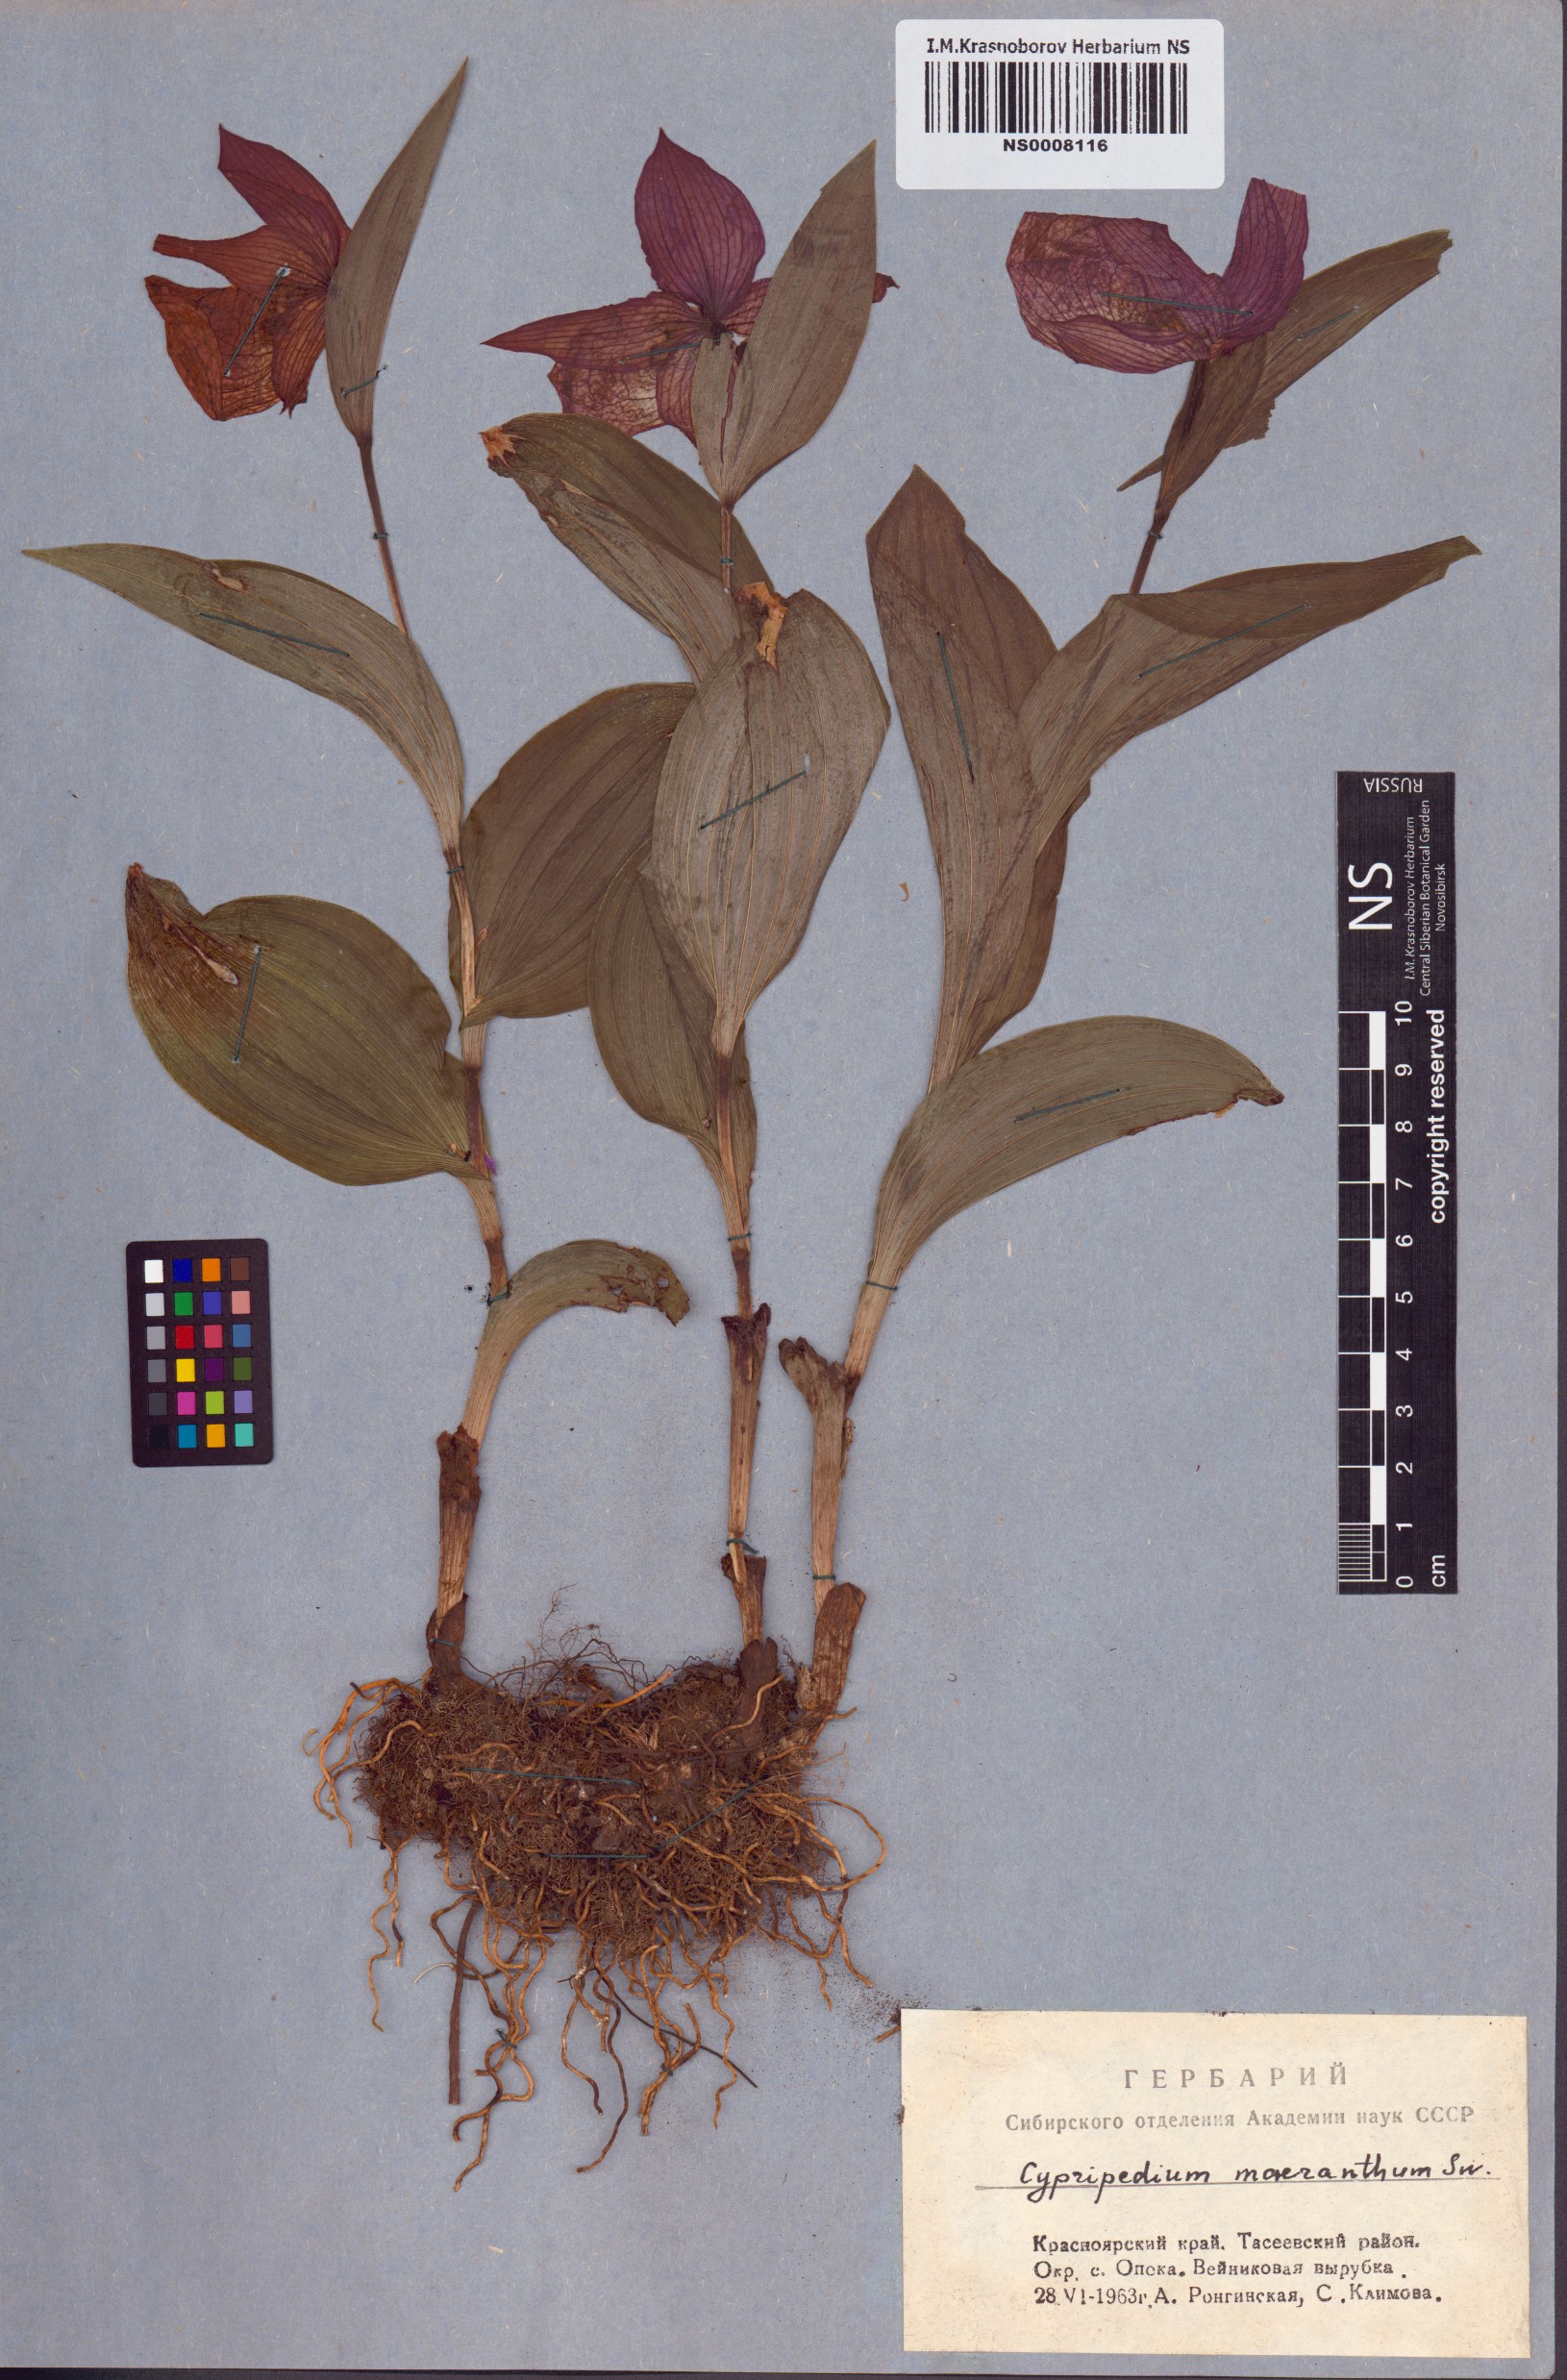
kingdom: Plantae
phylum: Tracheophyta
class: Liliopsida
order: Asparagales
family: Orchidaceae
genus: Cypripedium
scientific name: Cypripedium macranthos
